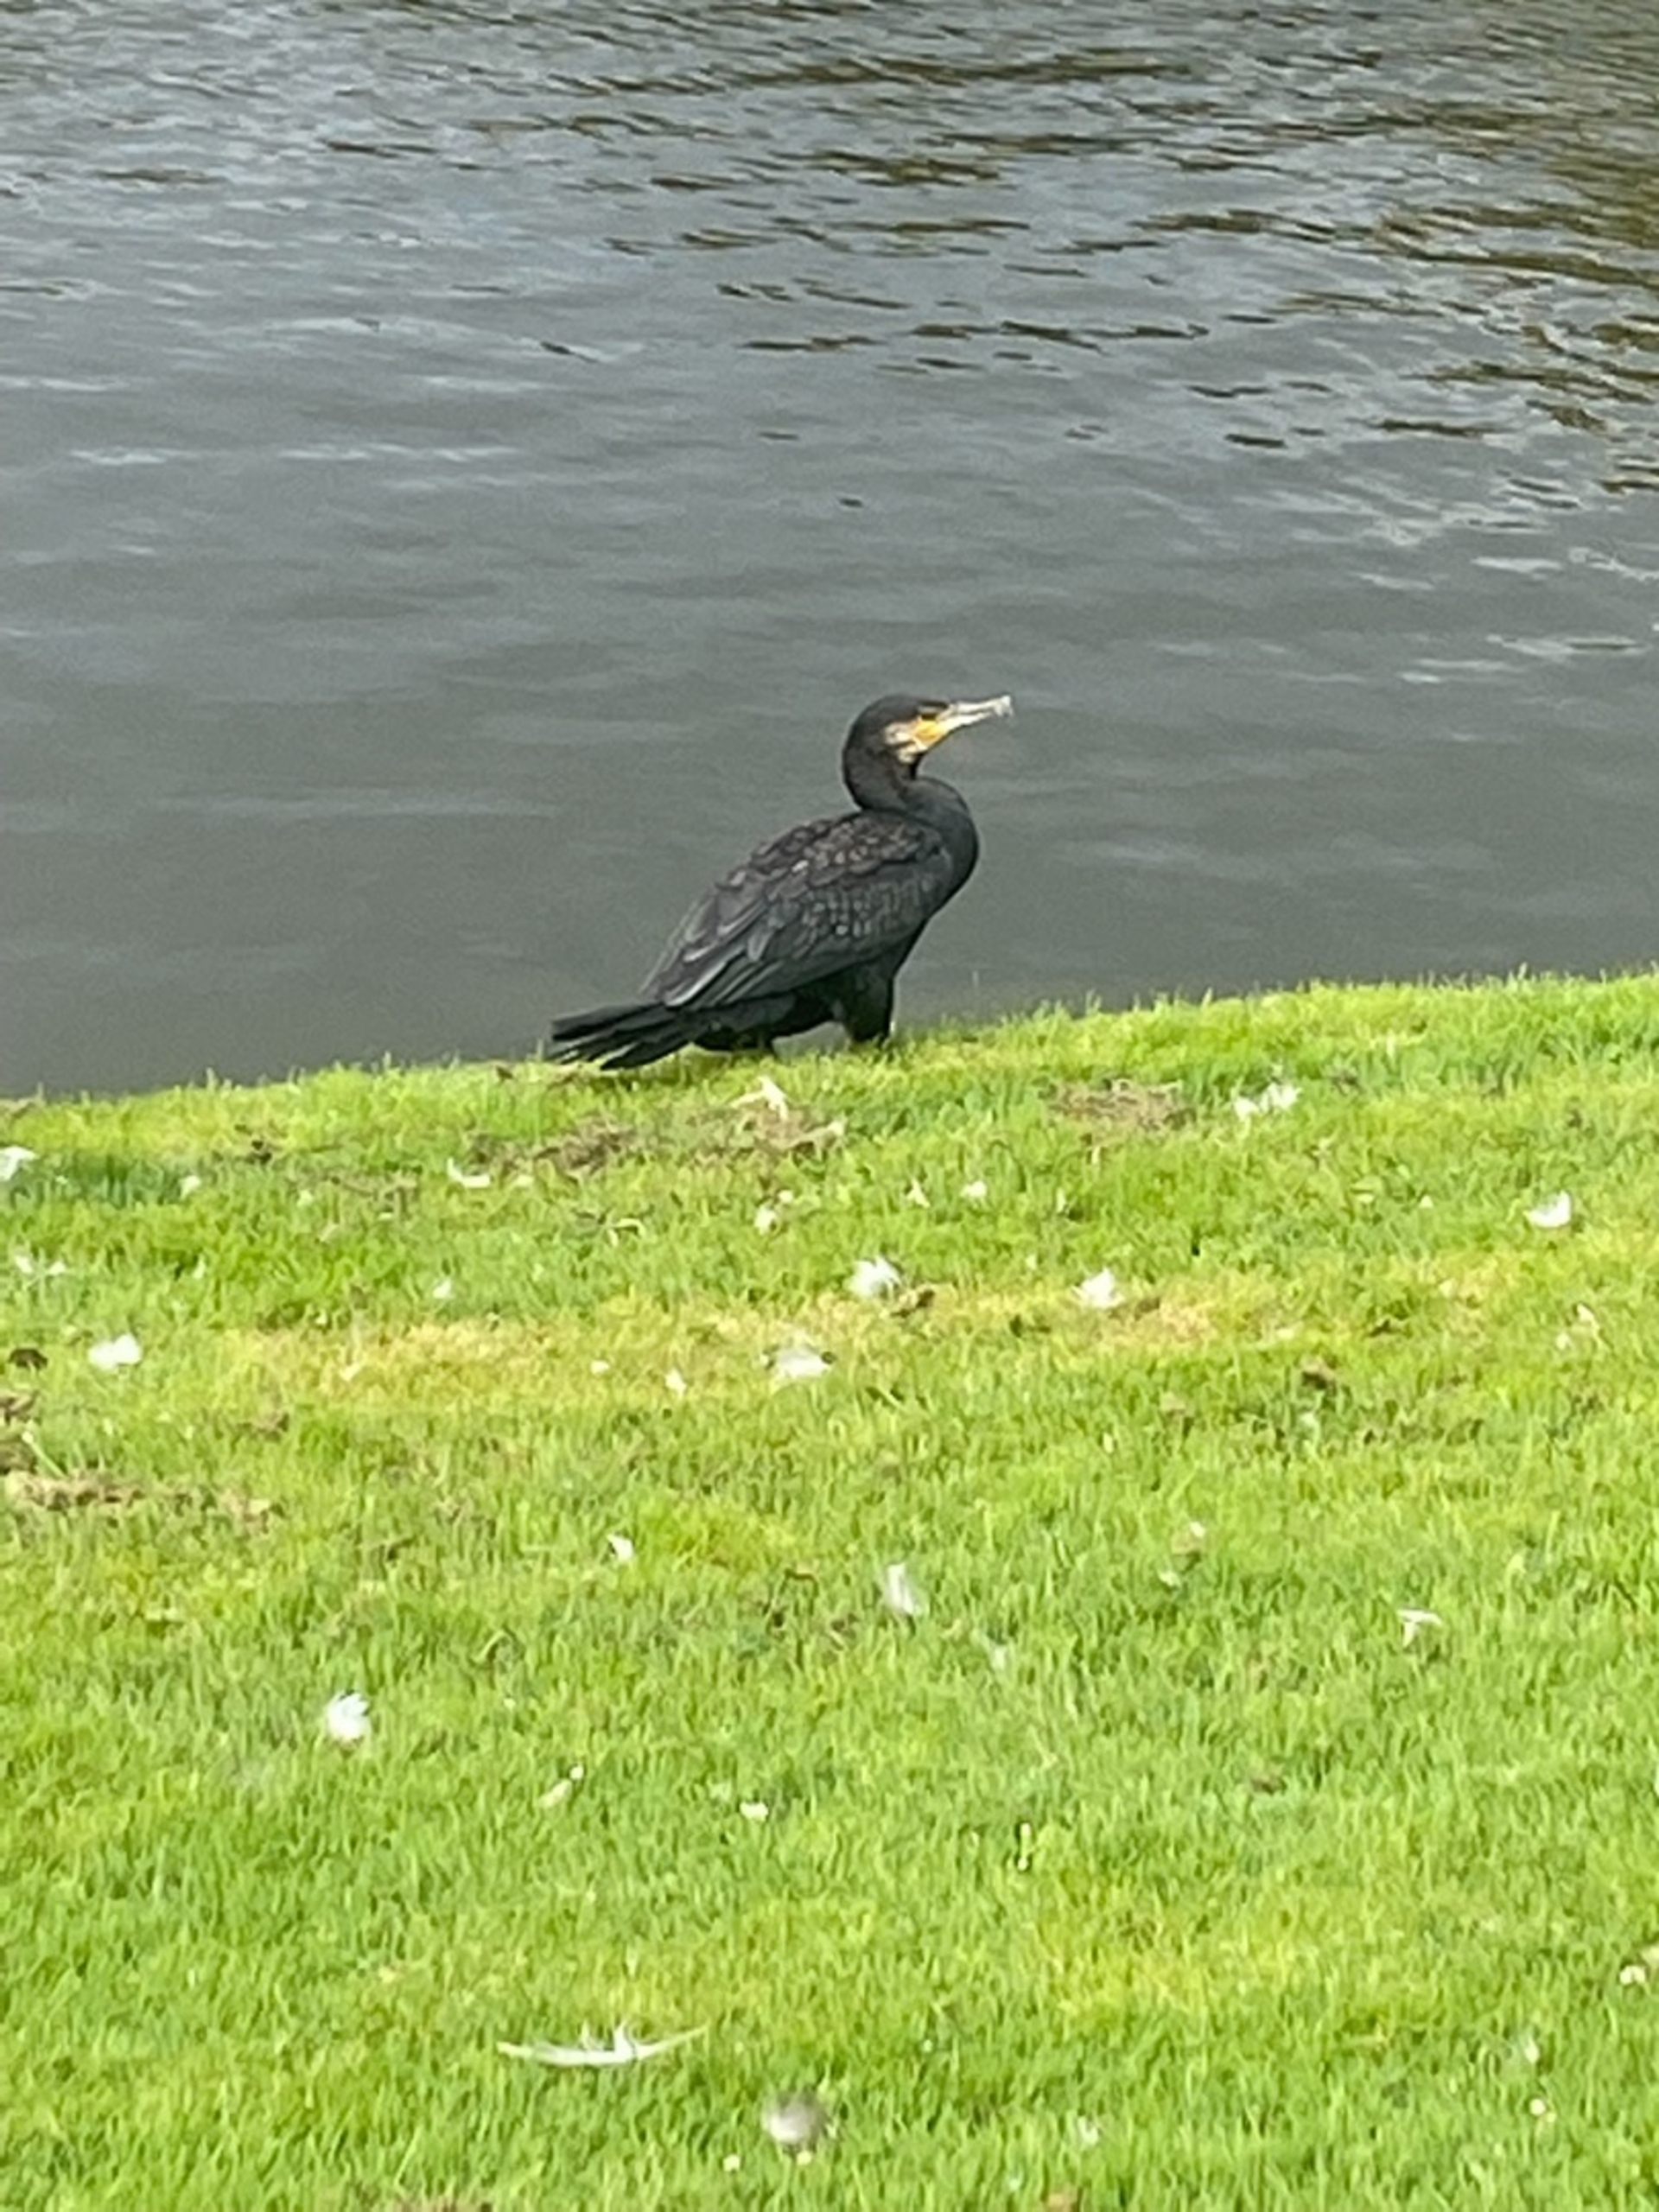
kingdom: Animalia
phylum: Chordata
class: Aves
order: Suliformes
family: Phalacrocoracidae
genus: Phalacrocorax
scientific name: Phalacrocorax carbo
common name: Skarv
